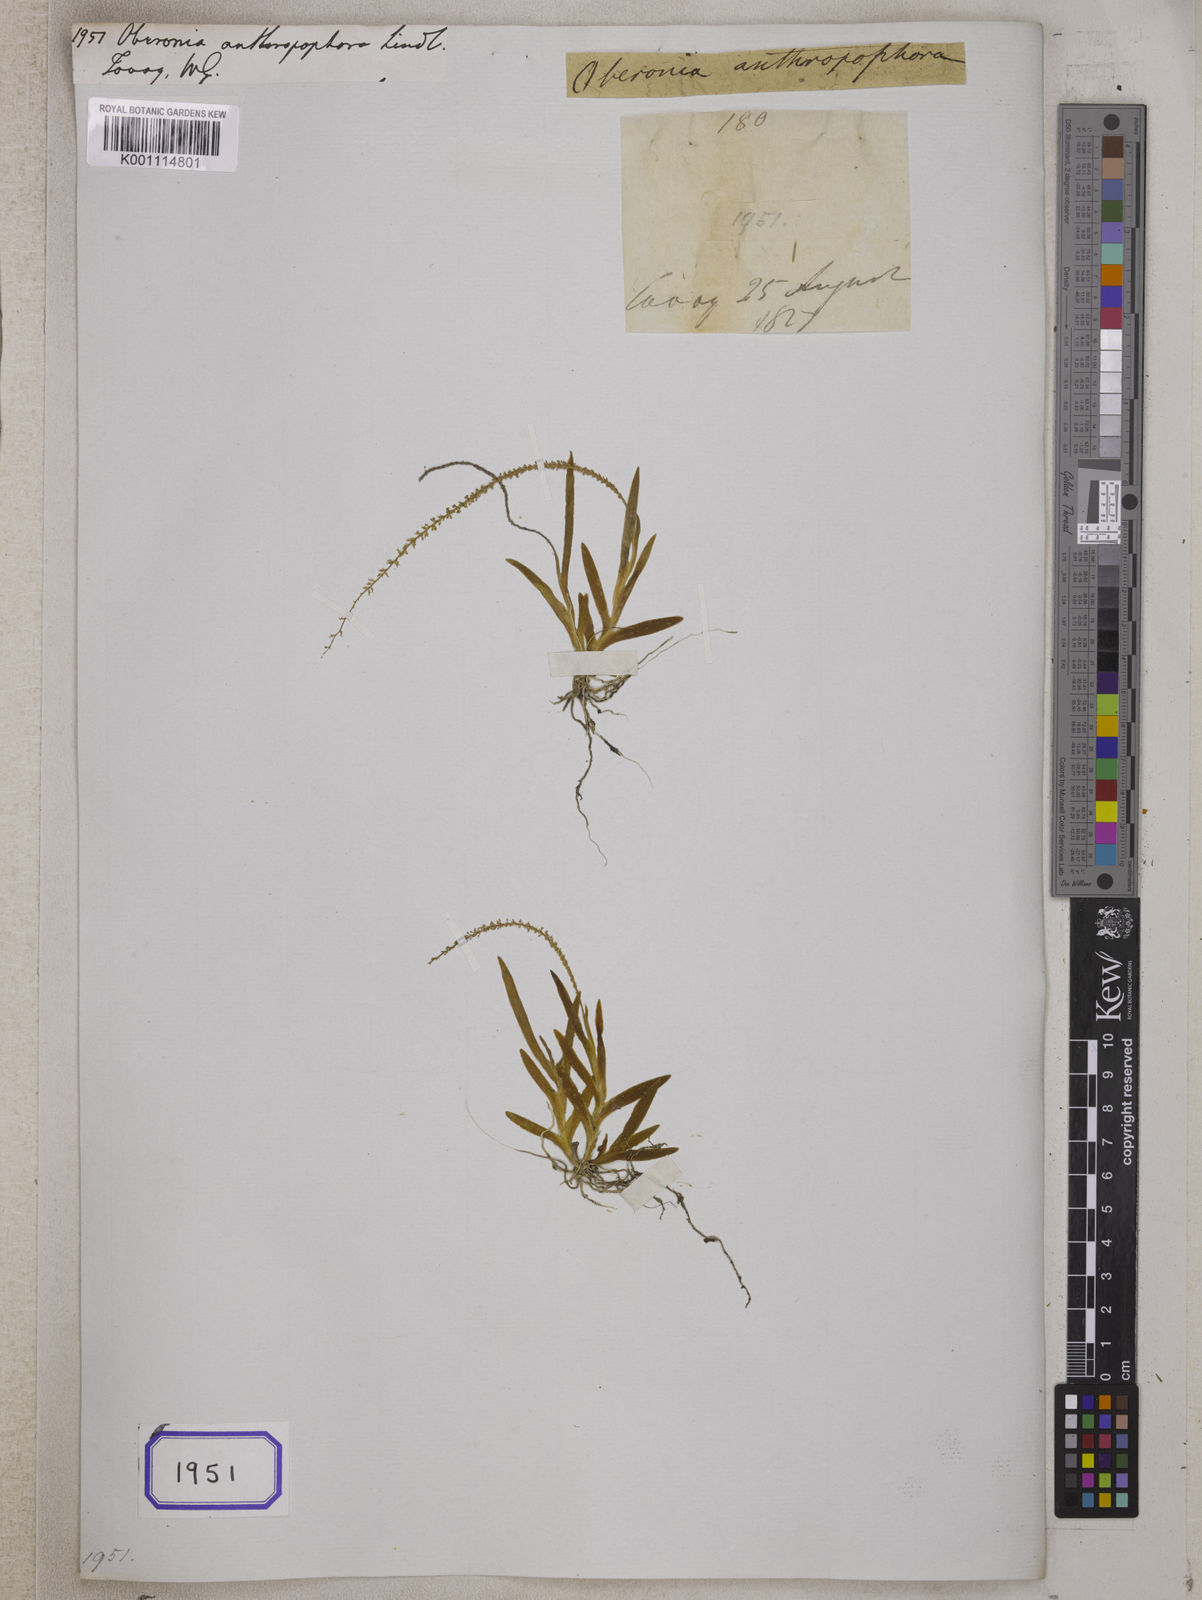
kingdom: Plantae
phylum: Tracheophyta
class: Liliopsida
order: Asparagales
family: Orchidaceae
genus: Oberonia
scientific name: Oberonia anthropophora
